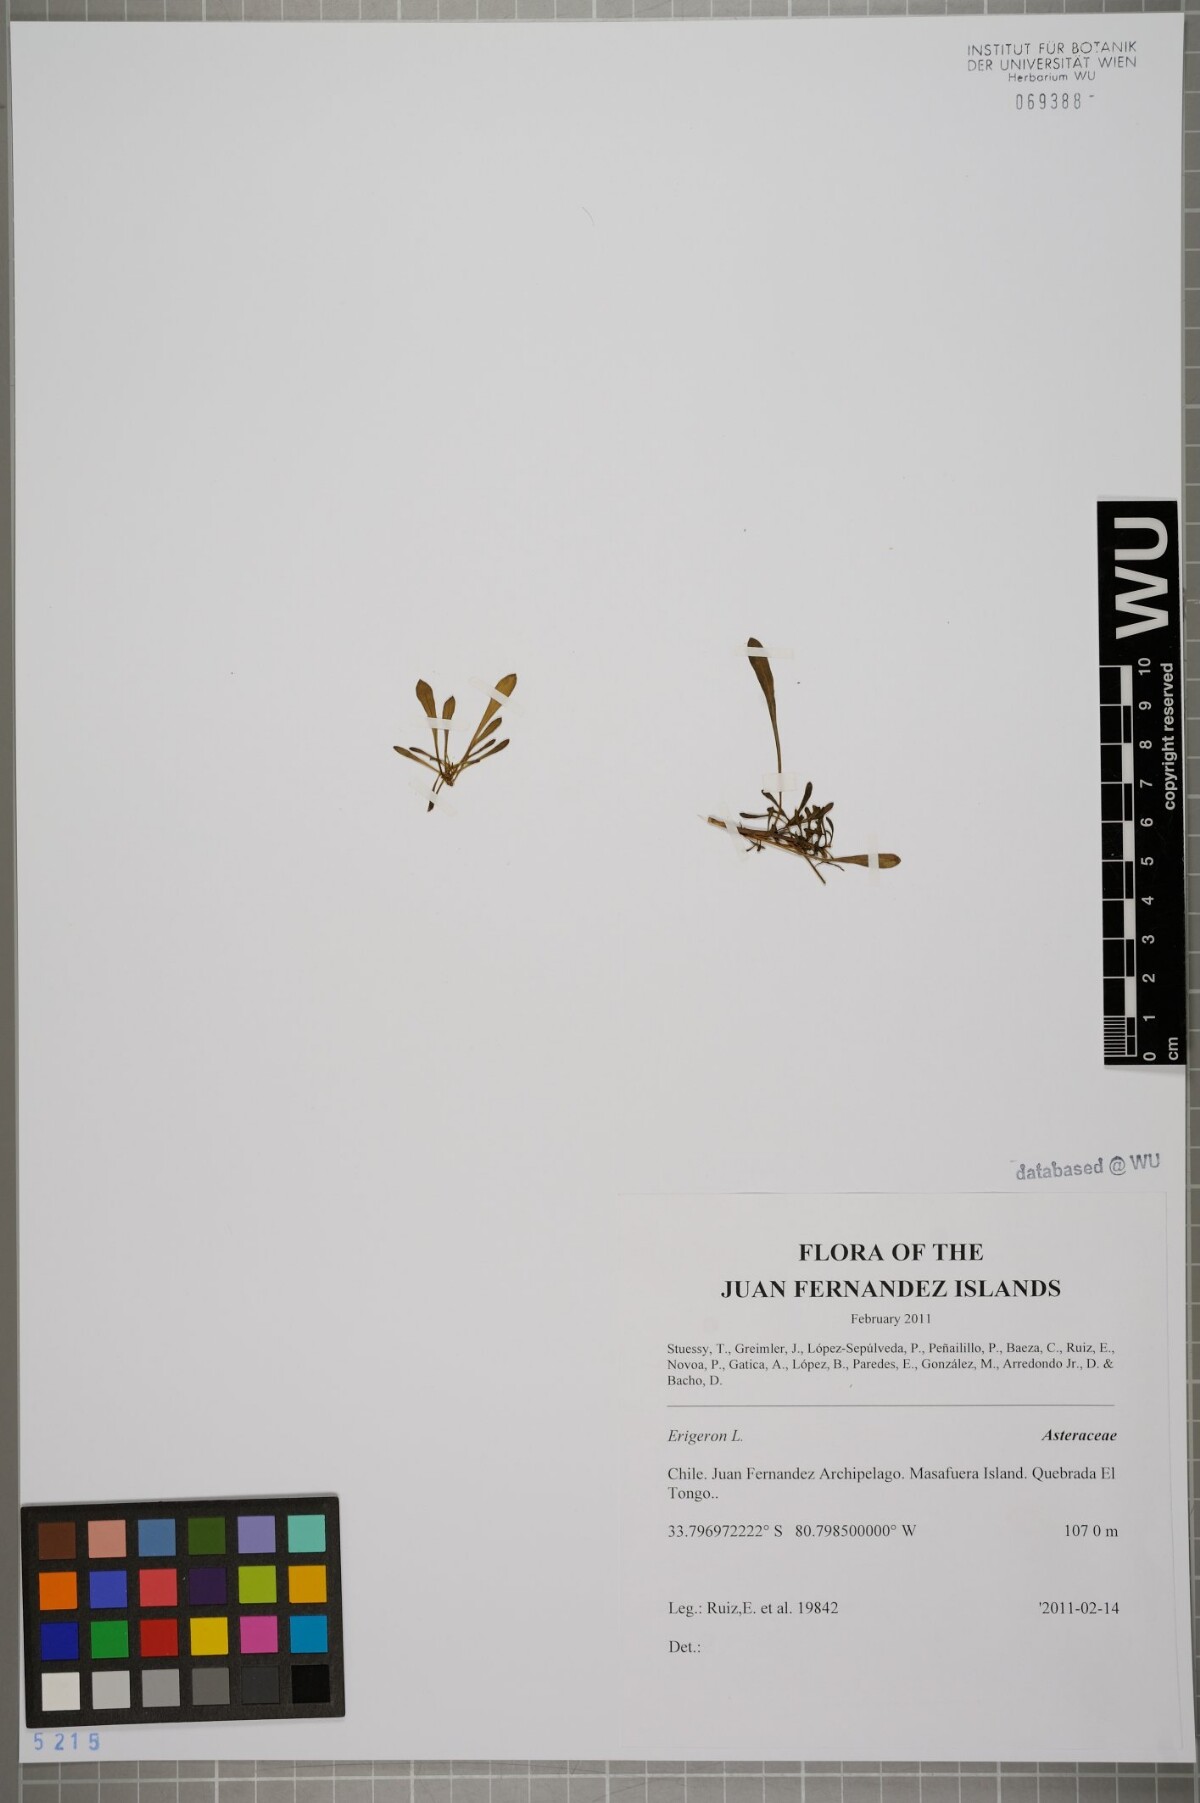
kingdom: Plantae
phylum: Tracheophyta
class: Magnoliopsida
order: Asterales
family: Asteraceae
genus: Erigeron
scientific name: Erigeron
